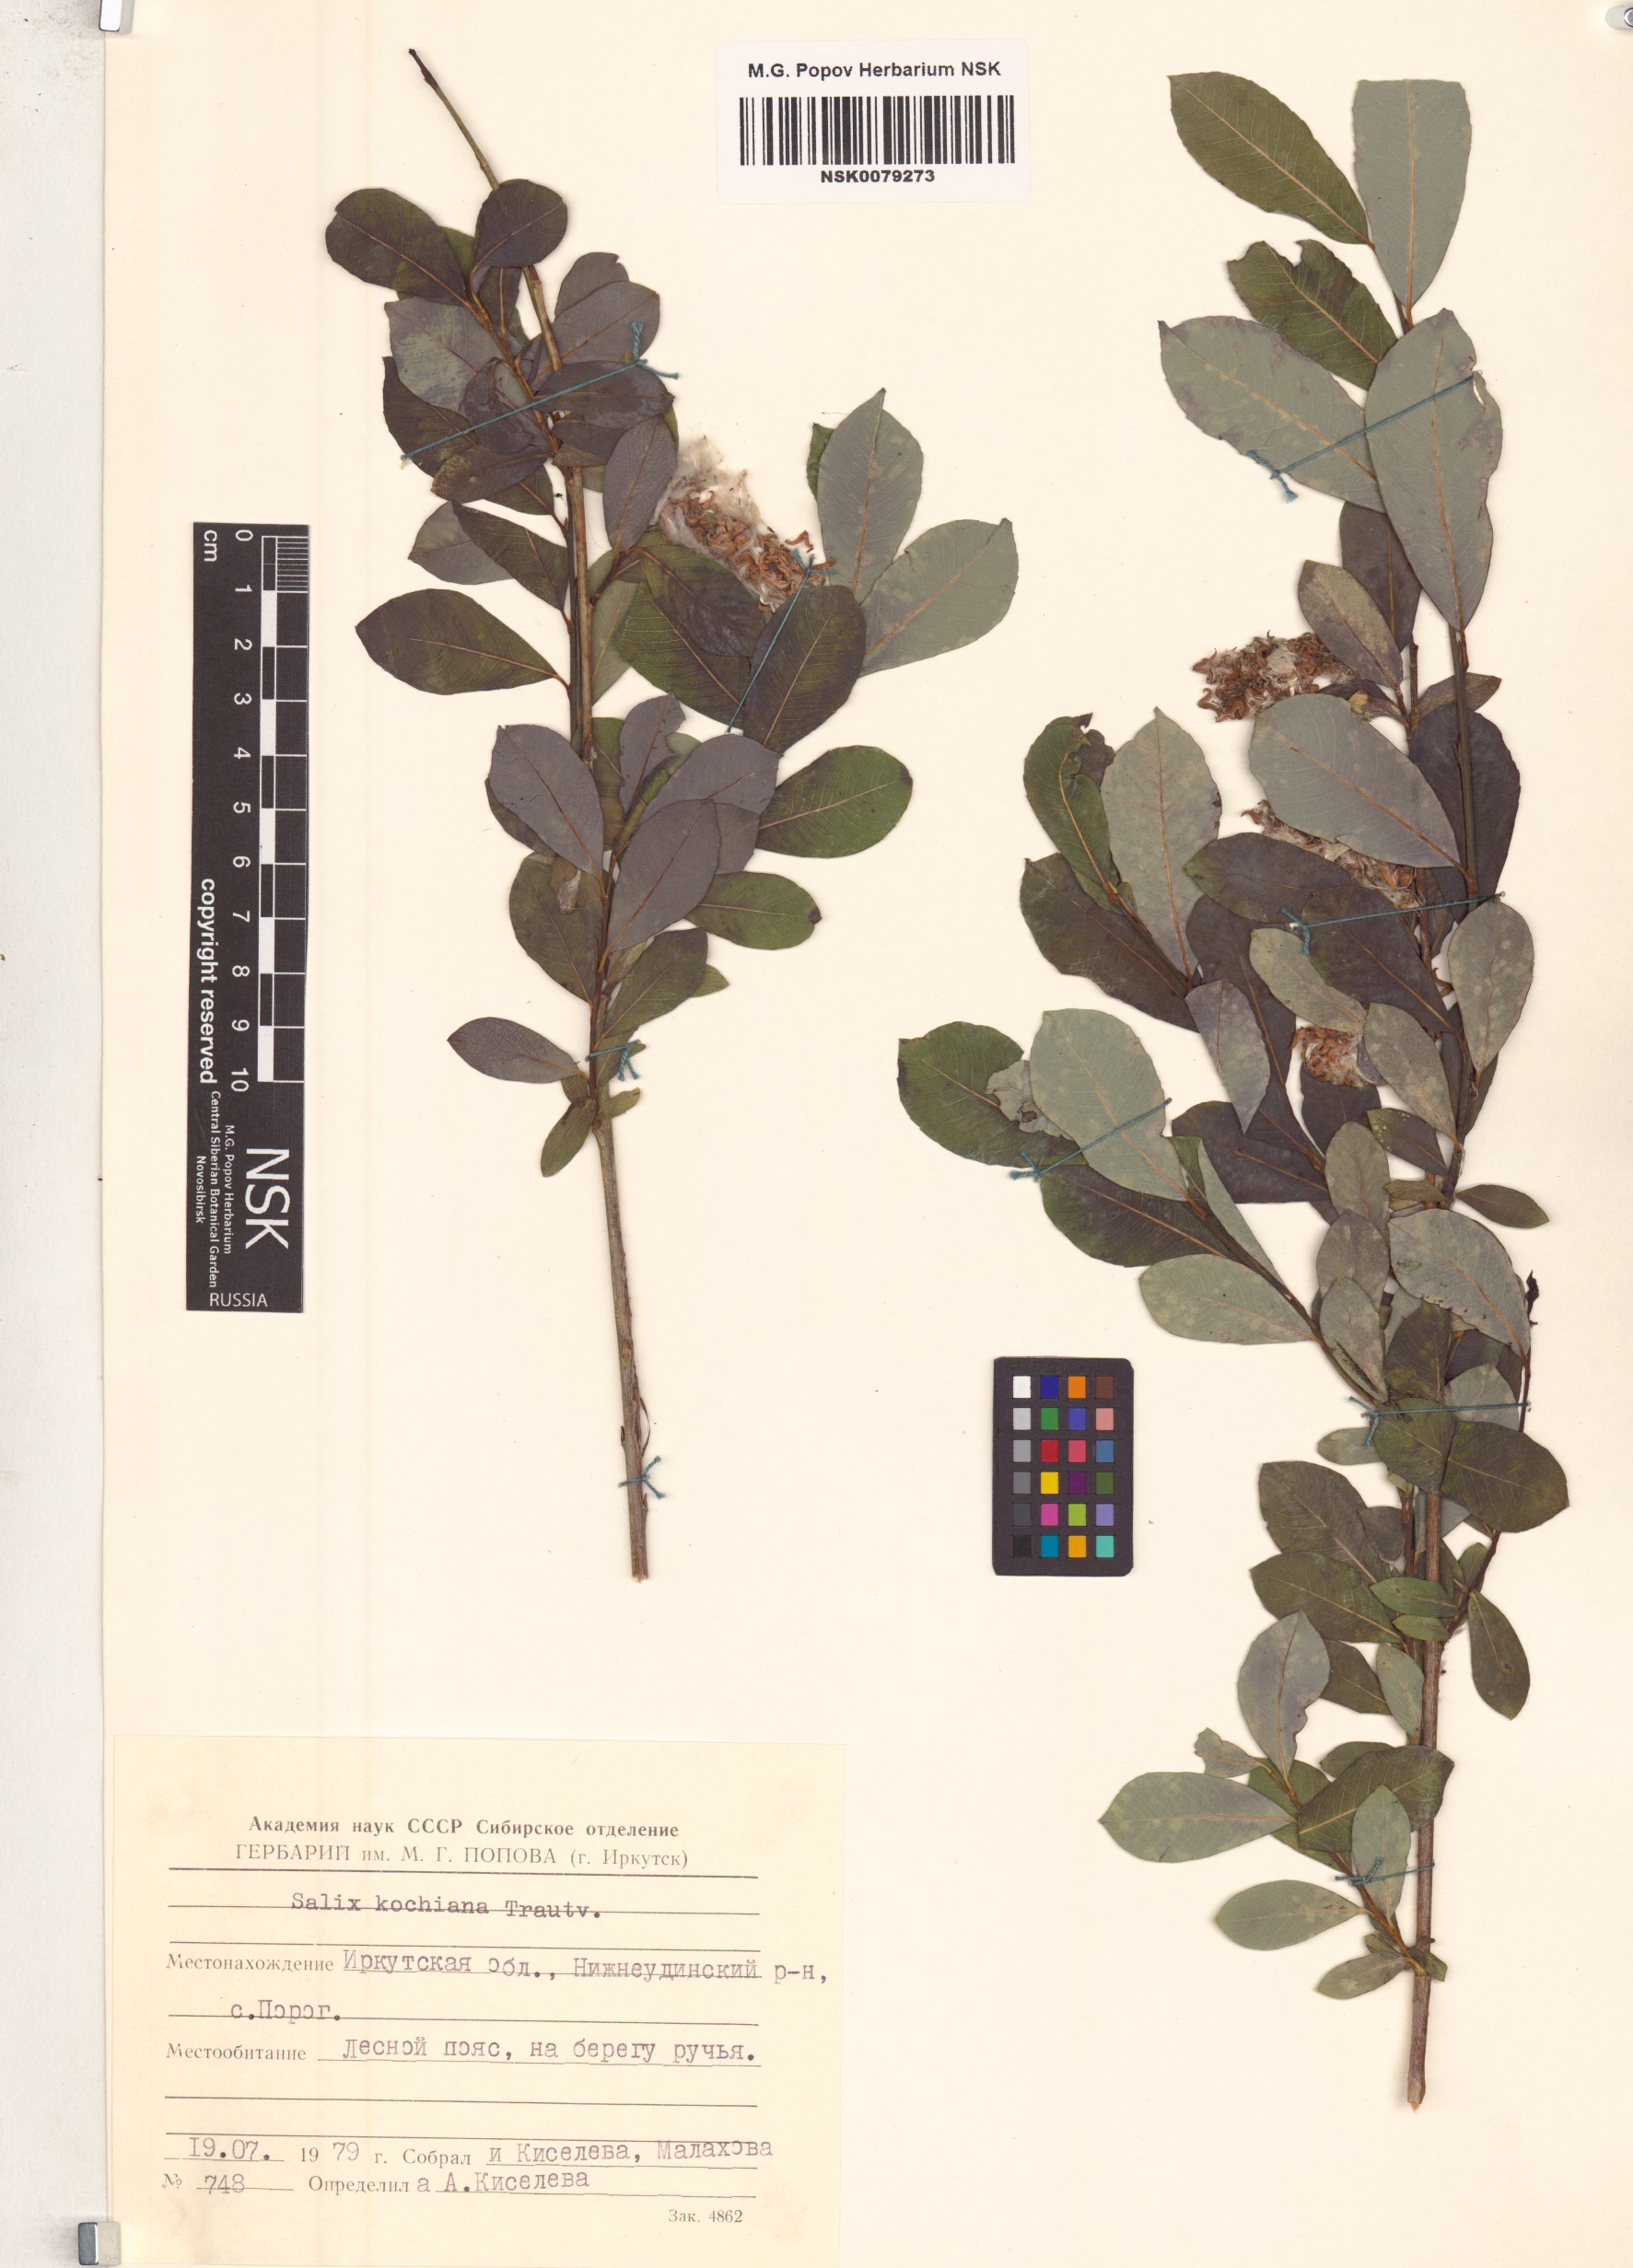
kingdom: Plantae
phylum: Tracheophyta
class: Magnoliopsida
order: Malpighiales
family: Salicaceae
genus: Salix
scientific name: Salix kochiana
